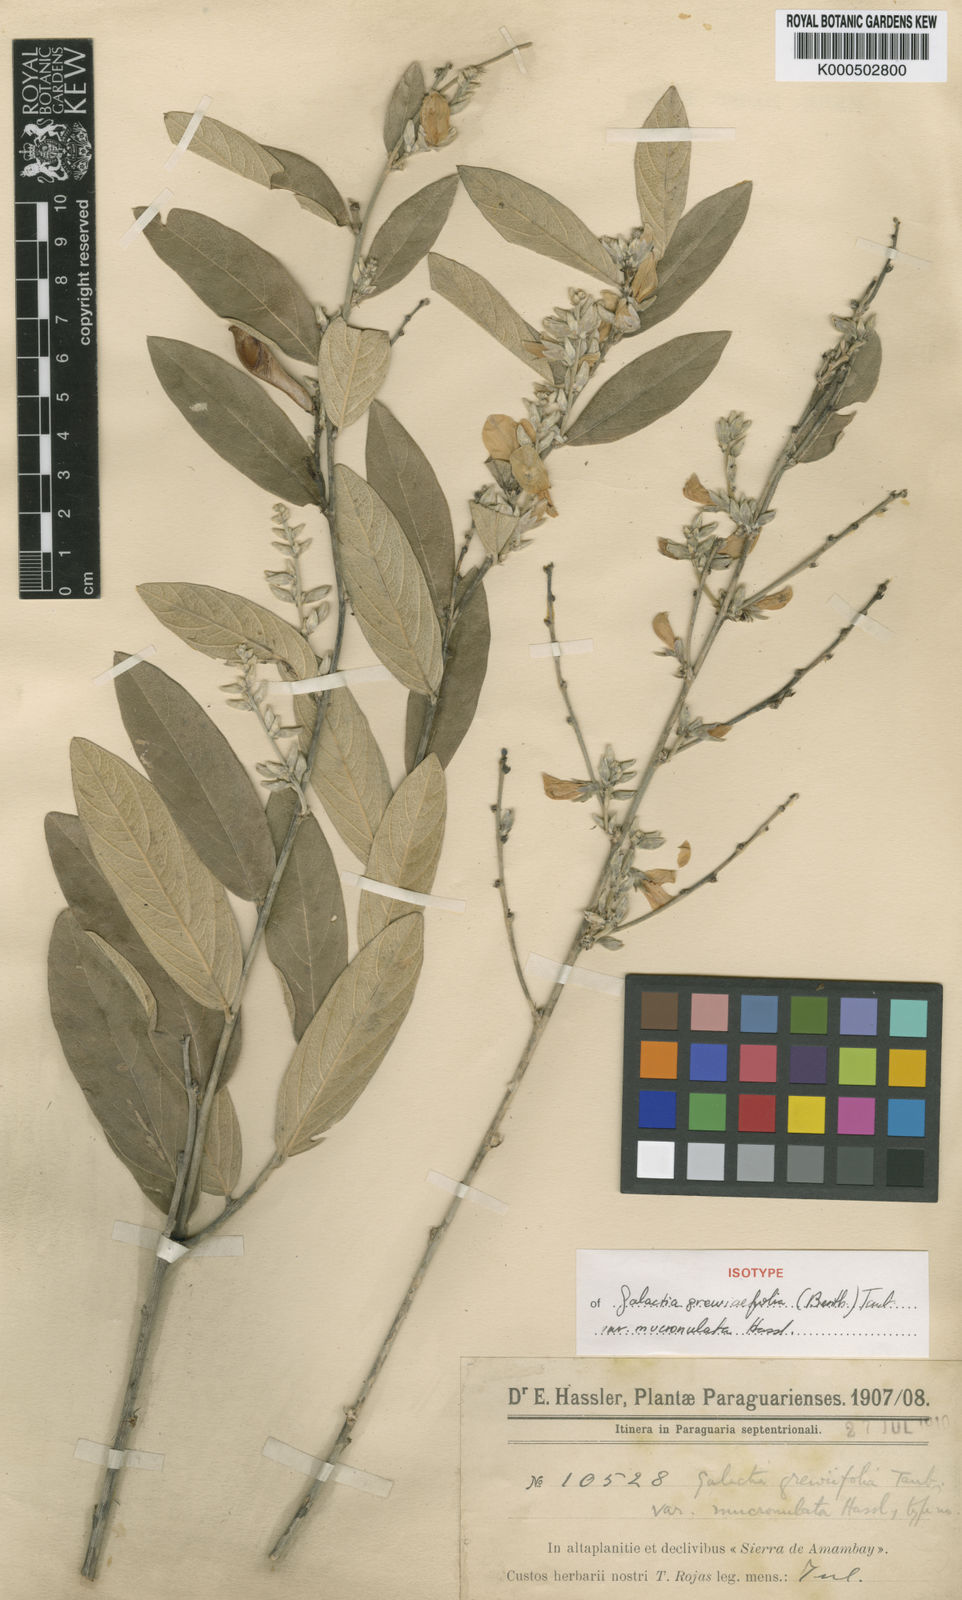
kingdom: Plantae
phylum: Tracheophyta
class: Magnoliopsida
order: Fabales
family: Fabaceae
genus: Cerradicola
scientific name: Cerradicola grewiifolia
